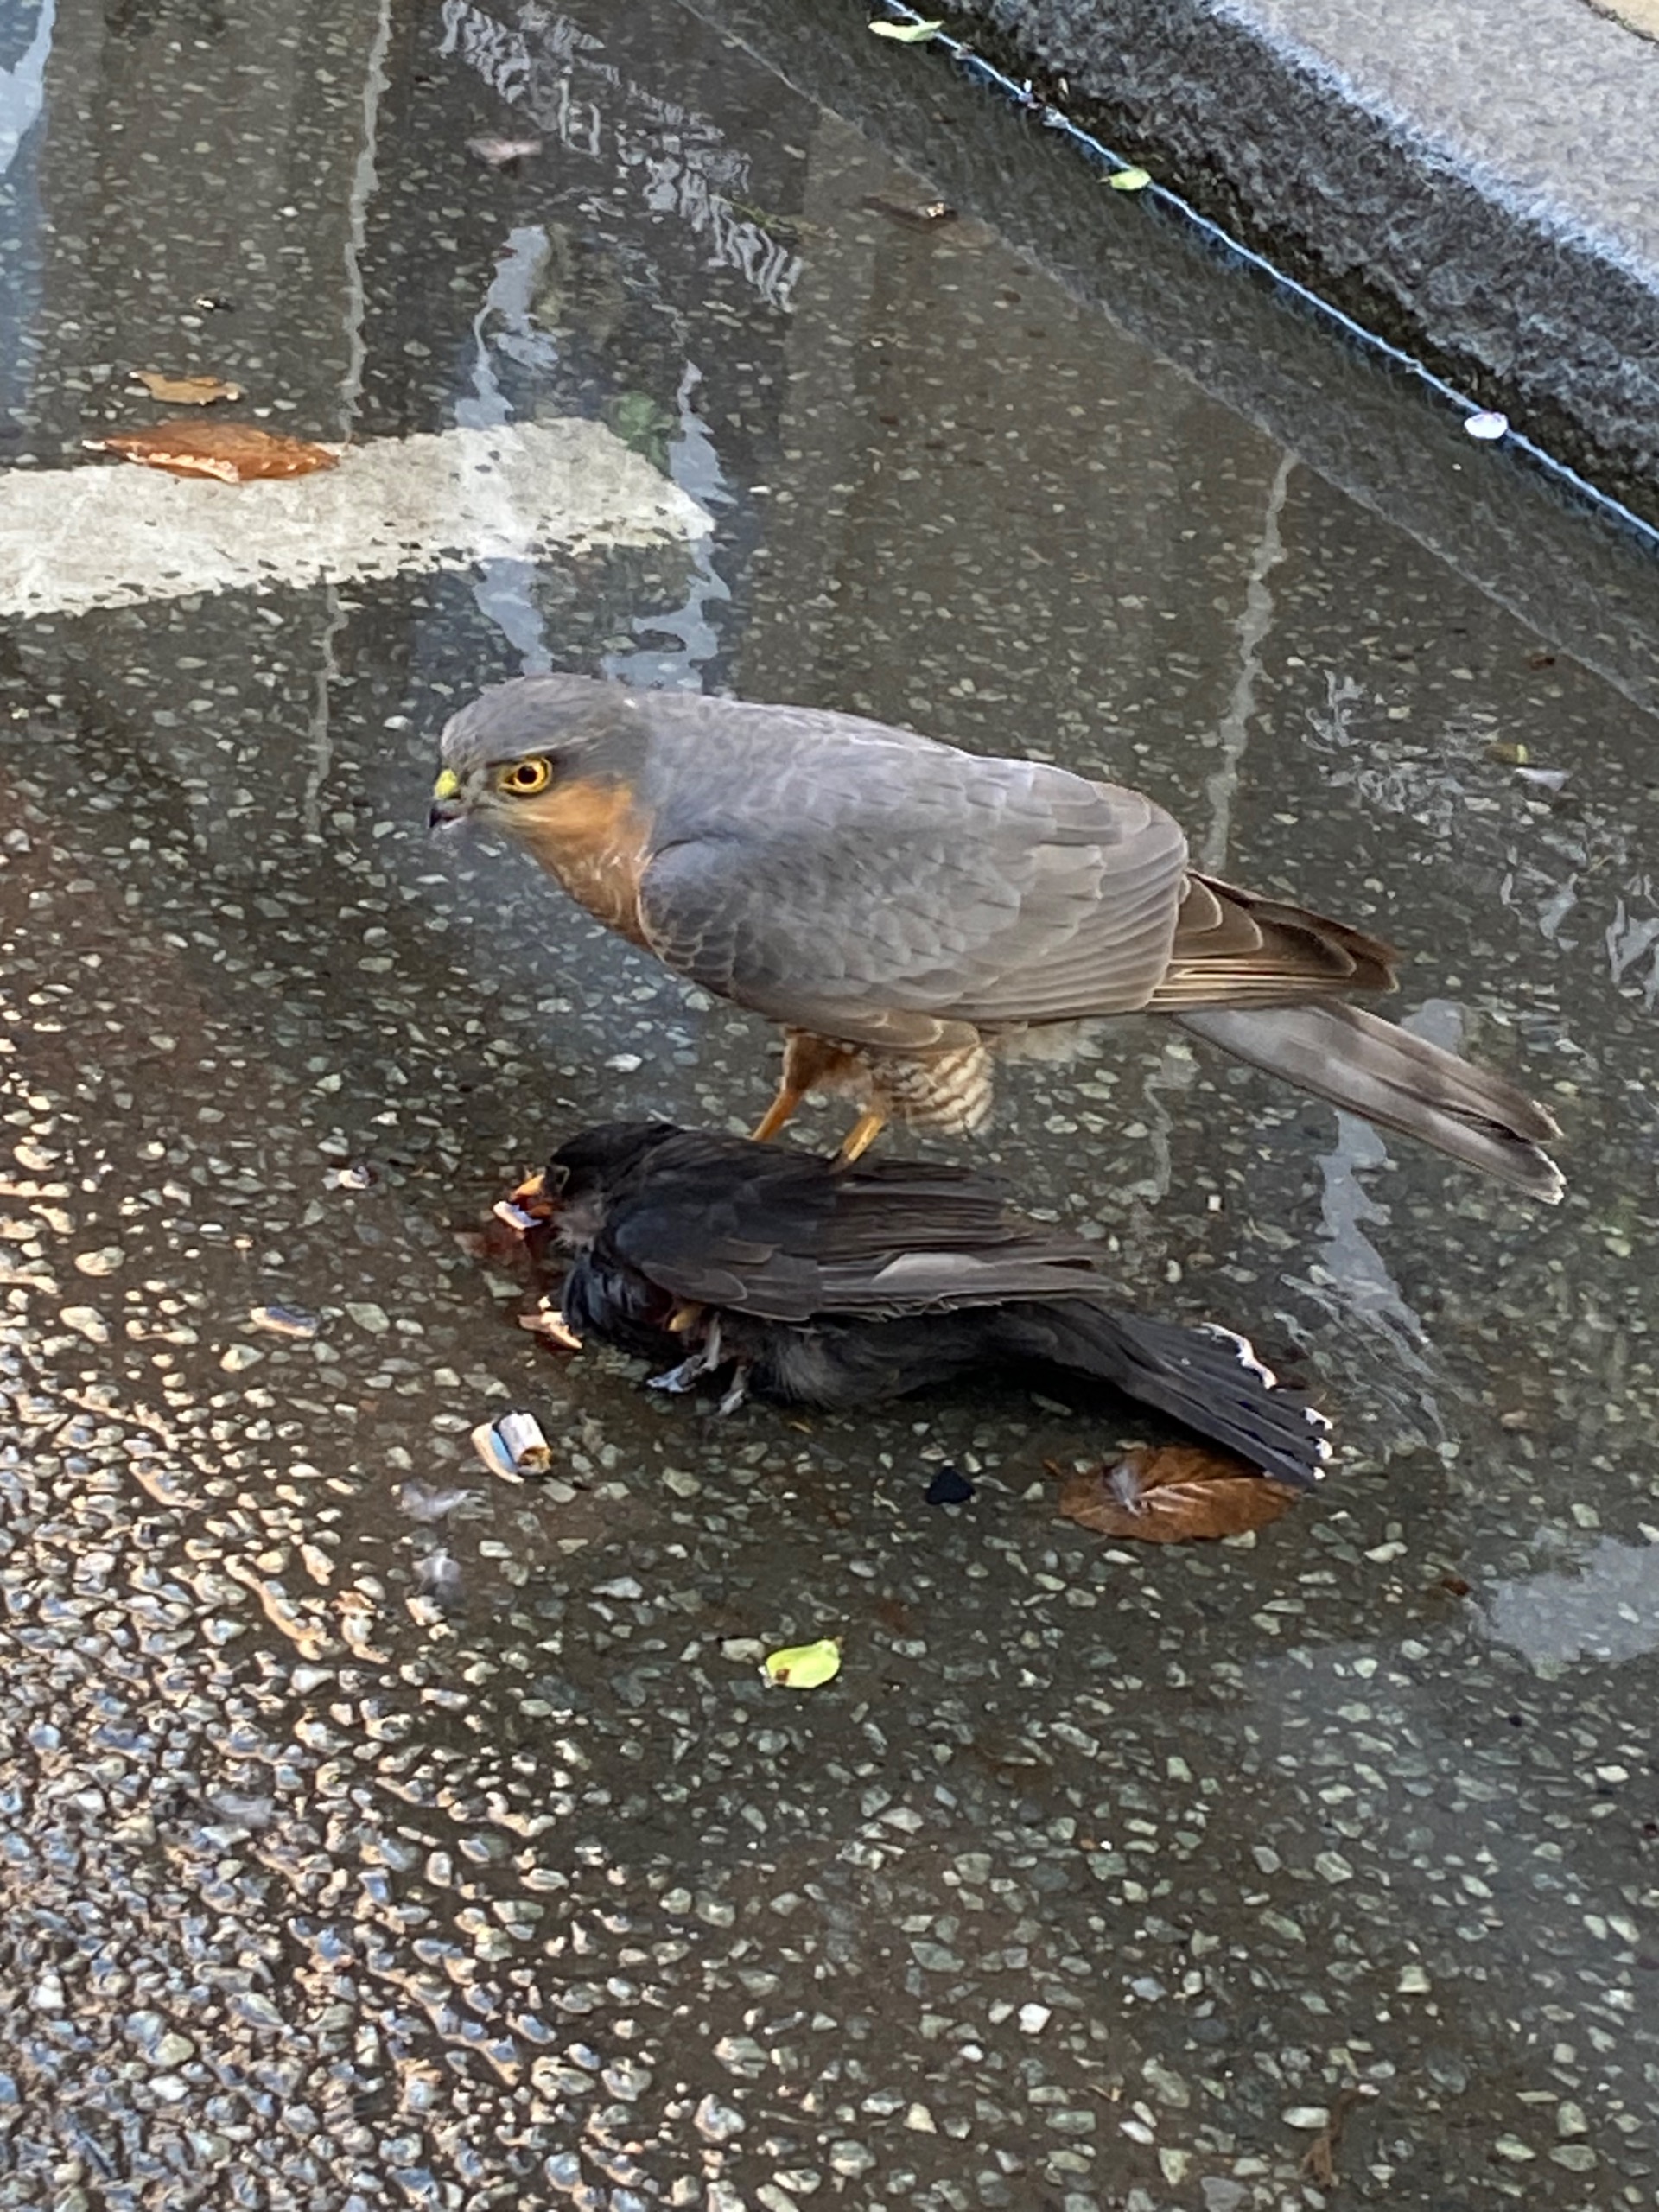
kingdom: Animalia
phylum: Chordata
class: Aves
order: Accipitriformes
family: Accipitridae
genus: Accipiter
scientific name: Accipiter nisus
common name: Spurvehøg
